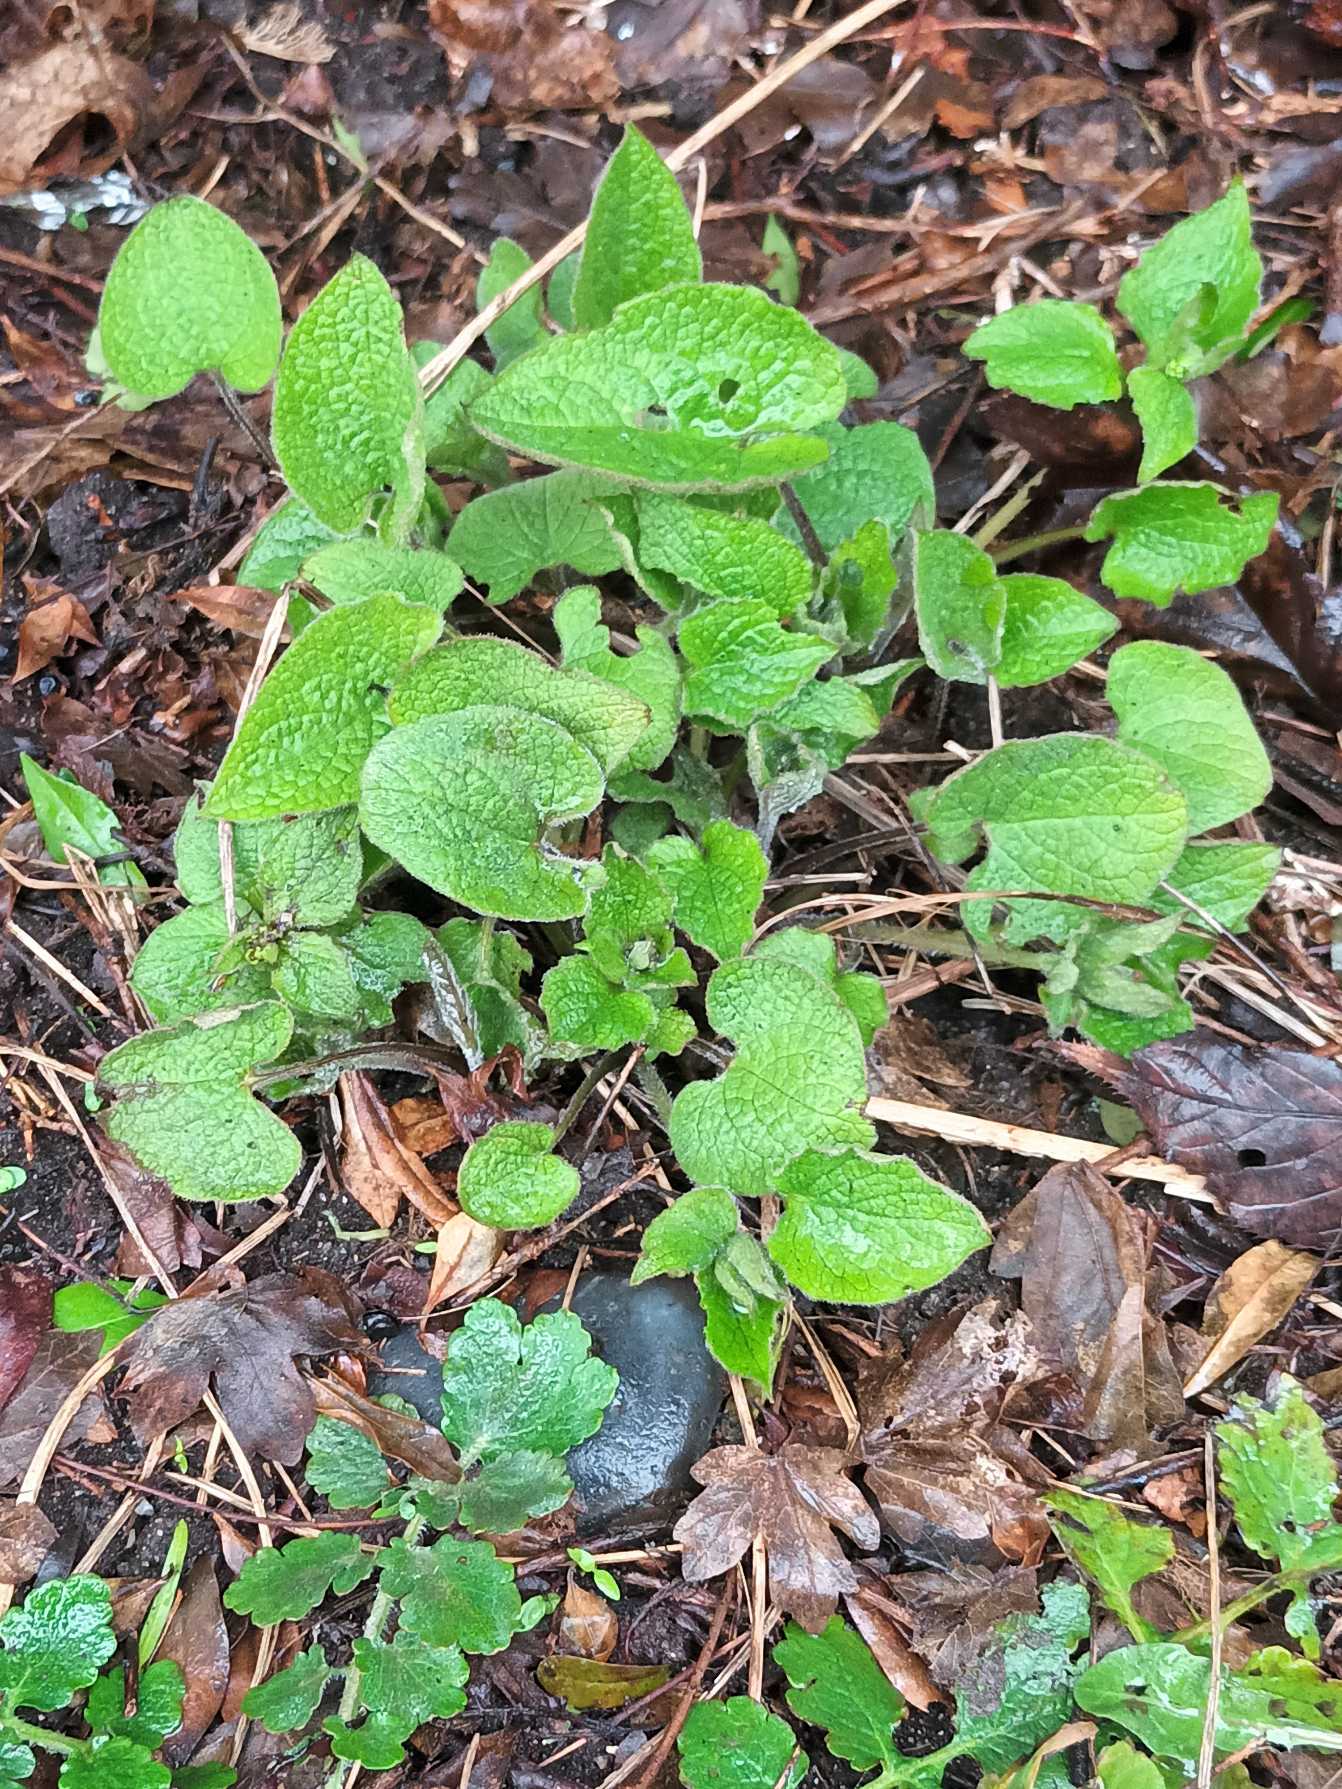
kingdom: Plantae
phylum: Tracheophyta
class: Magnoliopsida
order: Boraginales
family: Boraginaceae
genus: Brunnera
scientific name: Brunnera macrophylla
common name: Kærmindesøster
